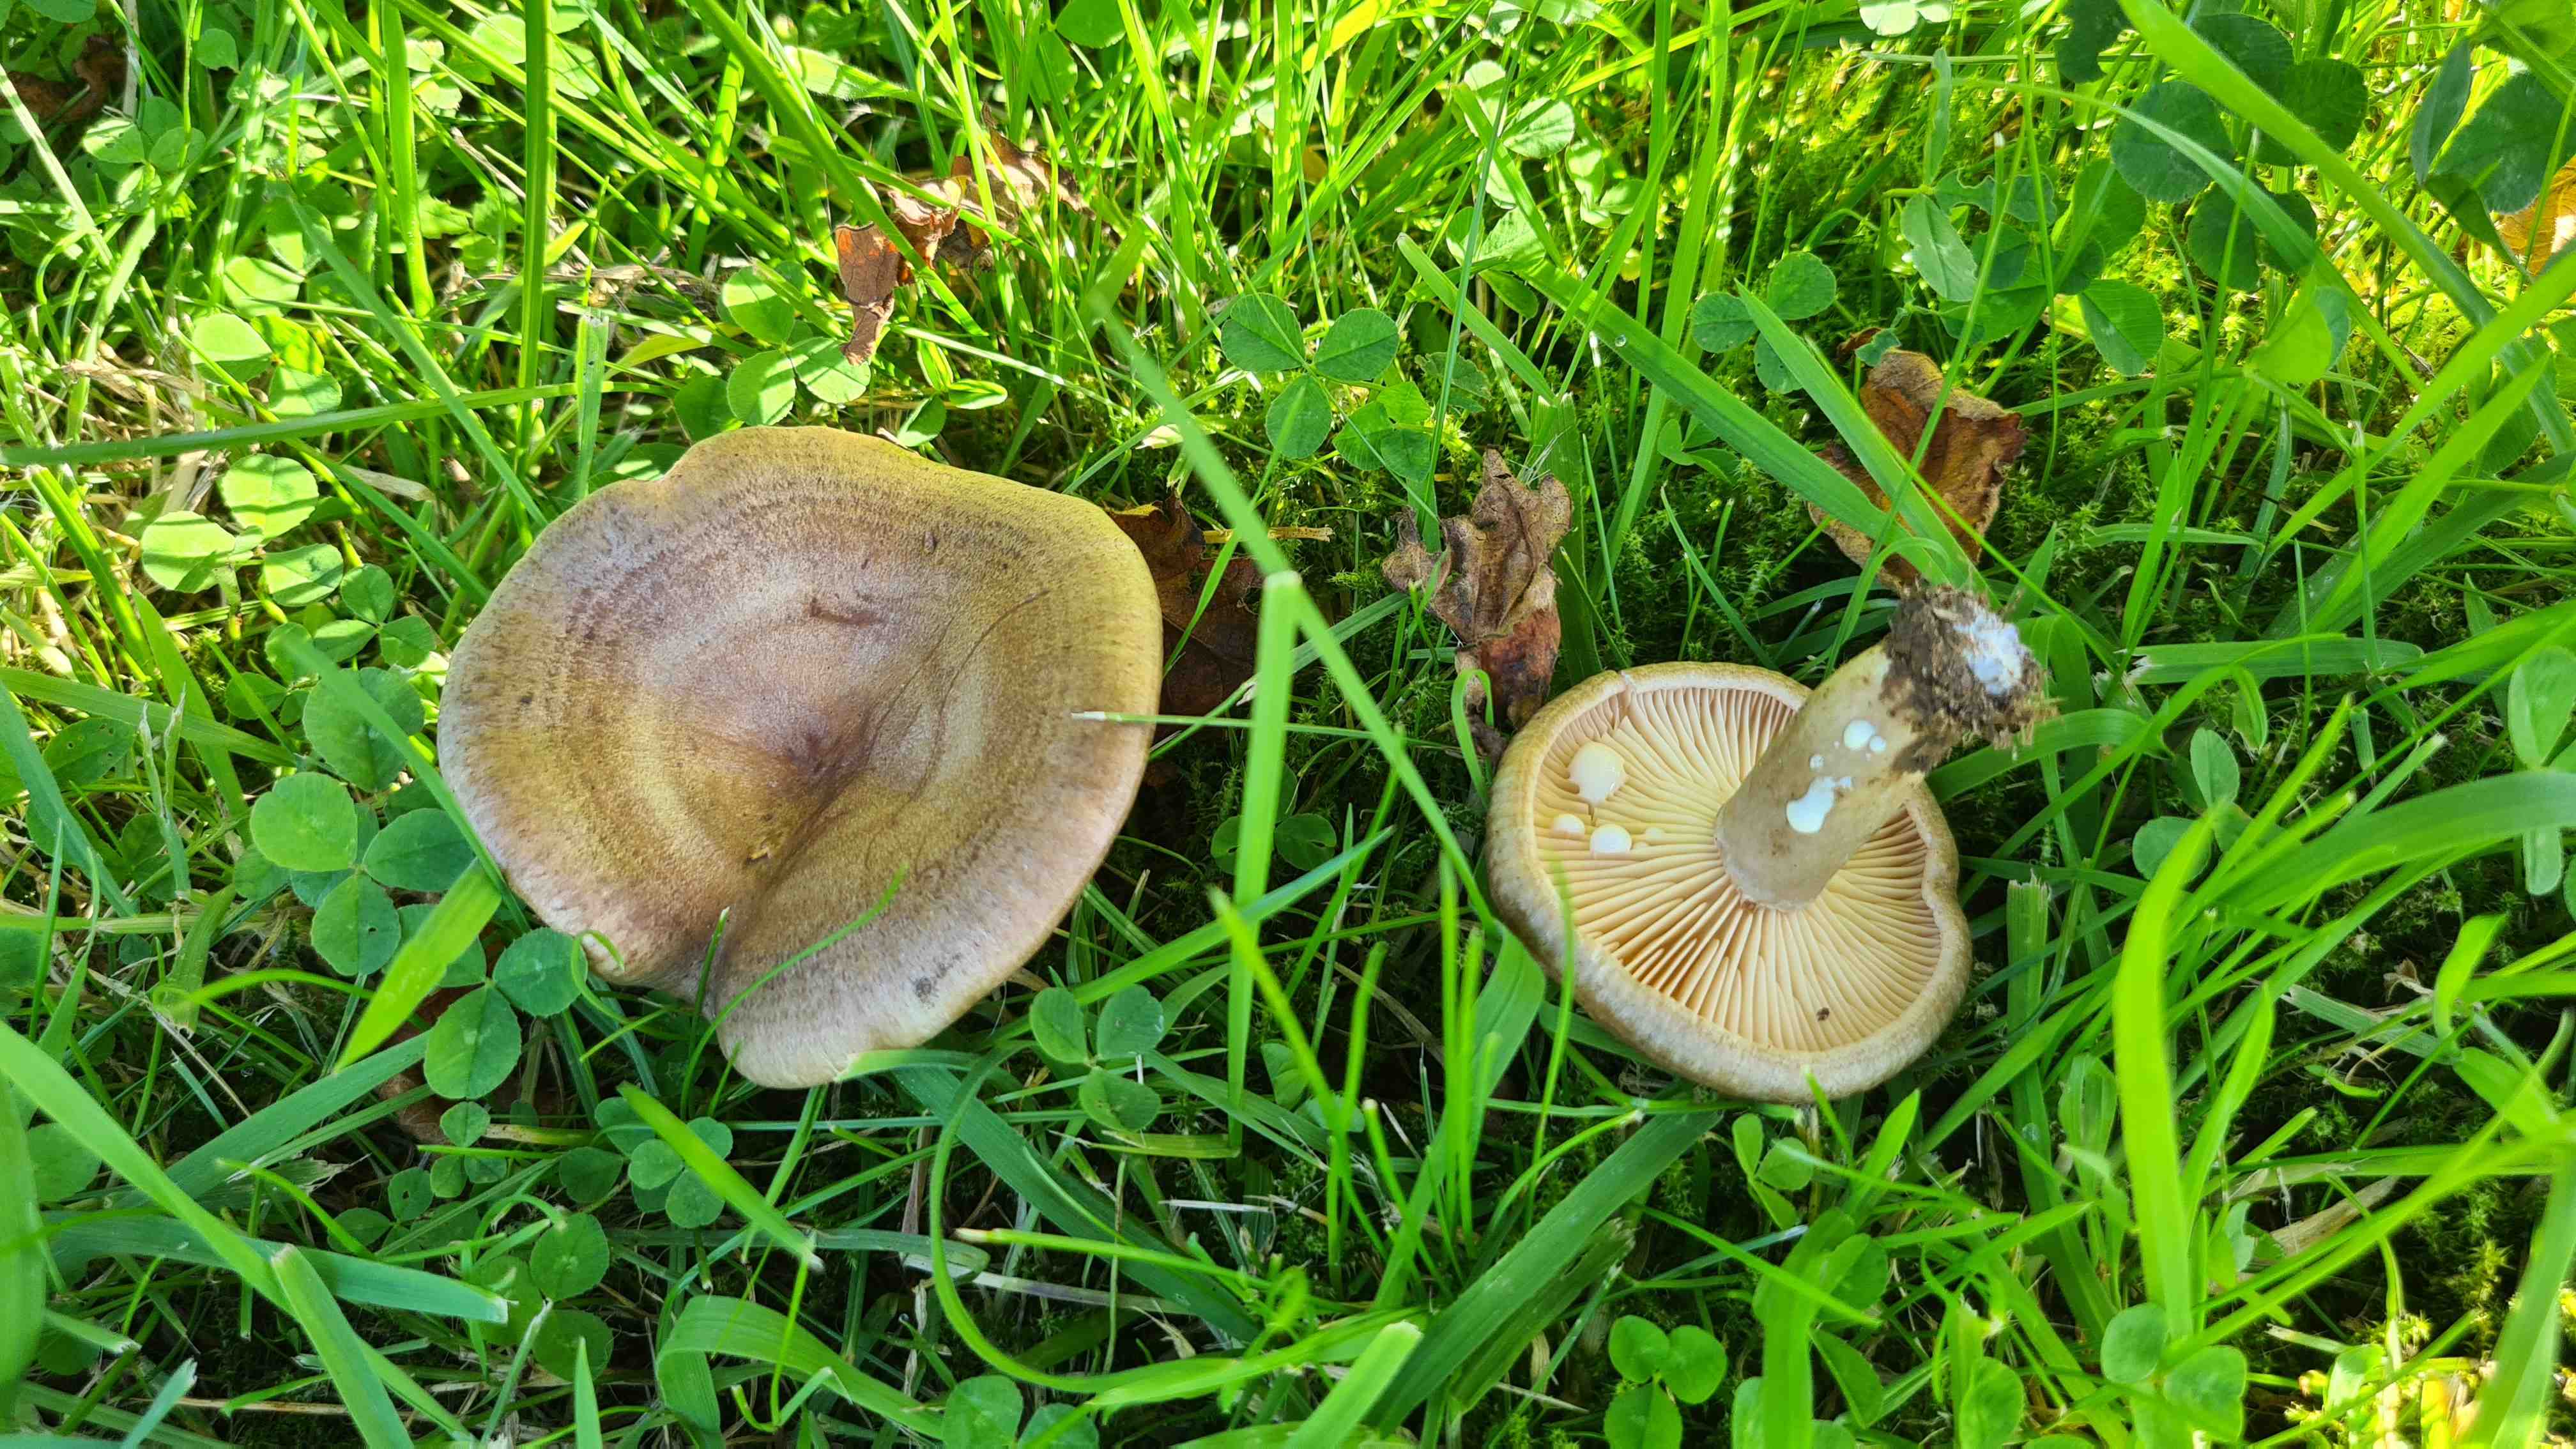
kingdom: Fungi
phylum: Basidiomycota
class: Agaricomycetes
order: Russulales
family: Russulaceae
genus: Lactarius
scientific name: Lactarius pyrogalus
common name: hassel-mælkehat
